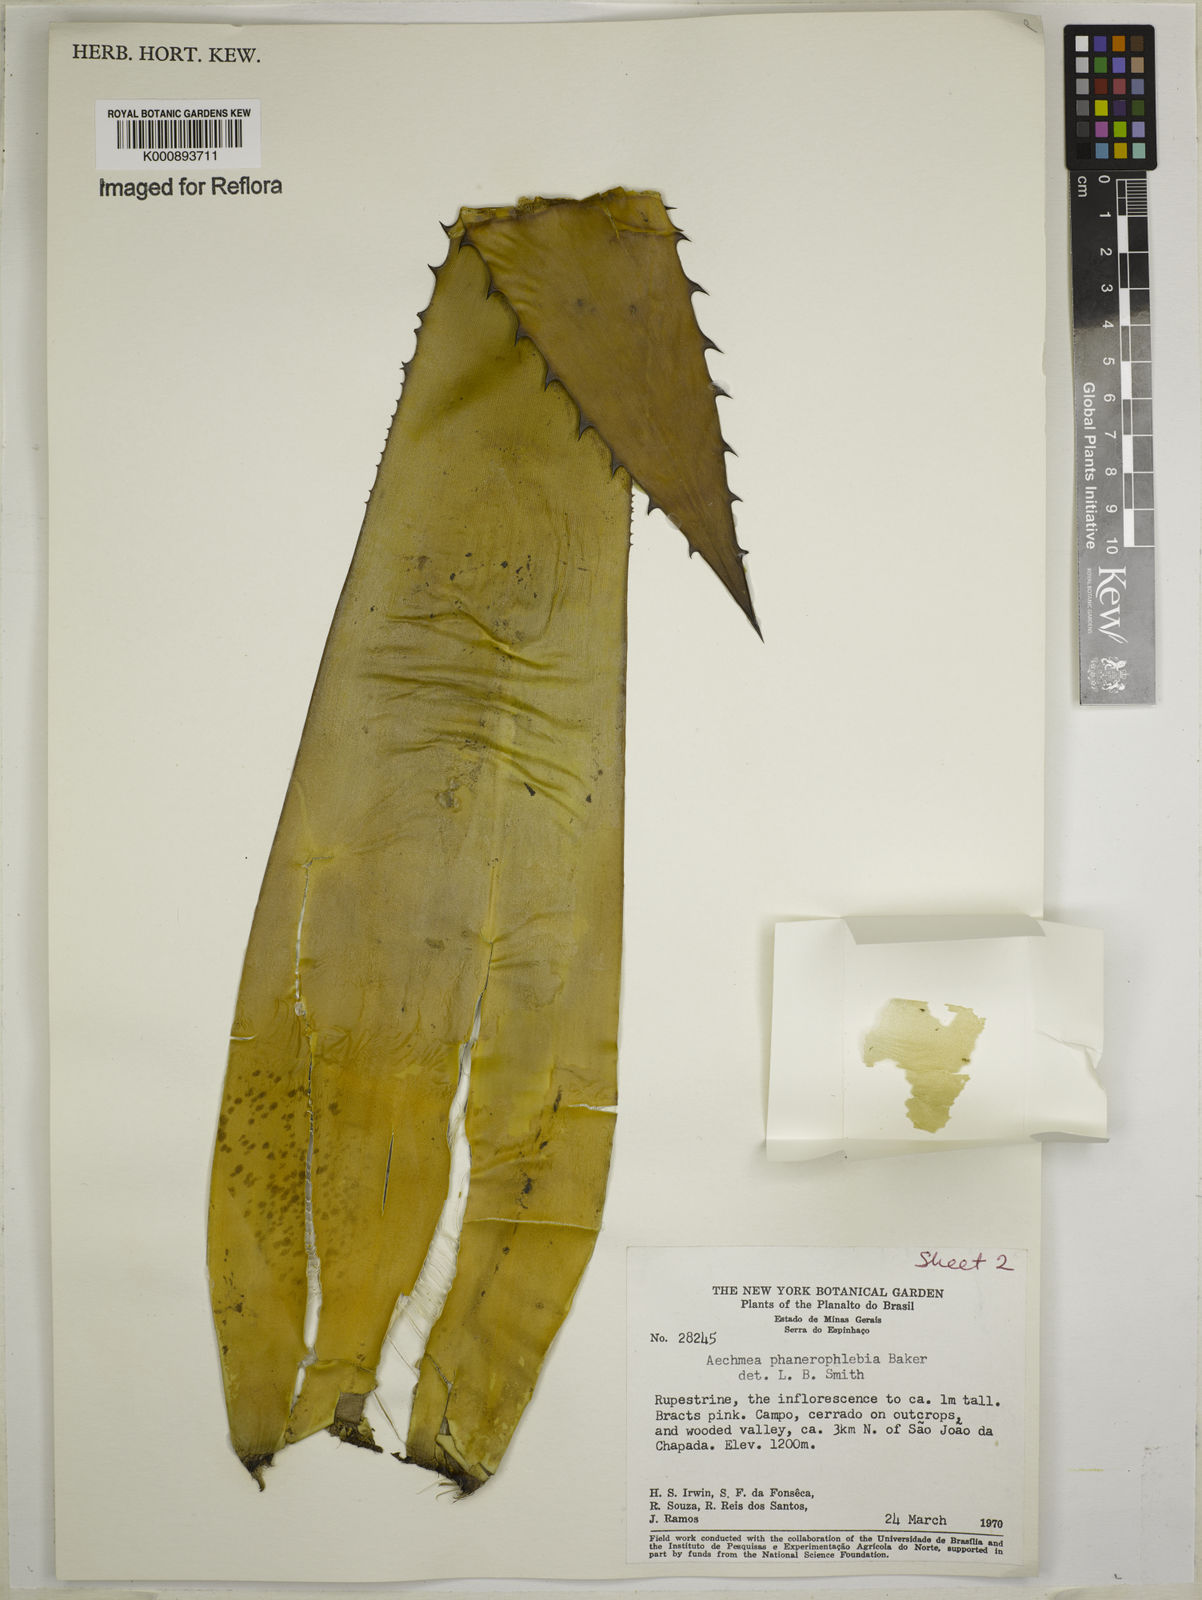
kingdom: Plantae
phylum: Tracheophyta
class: Liliopsida
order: Poales
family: Bromeliaceae
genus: Aechmea
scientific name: Aechmea phanerophlebia
